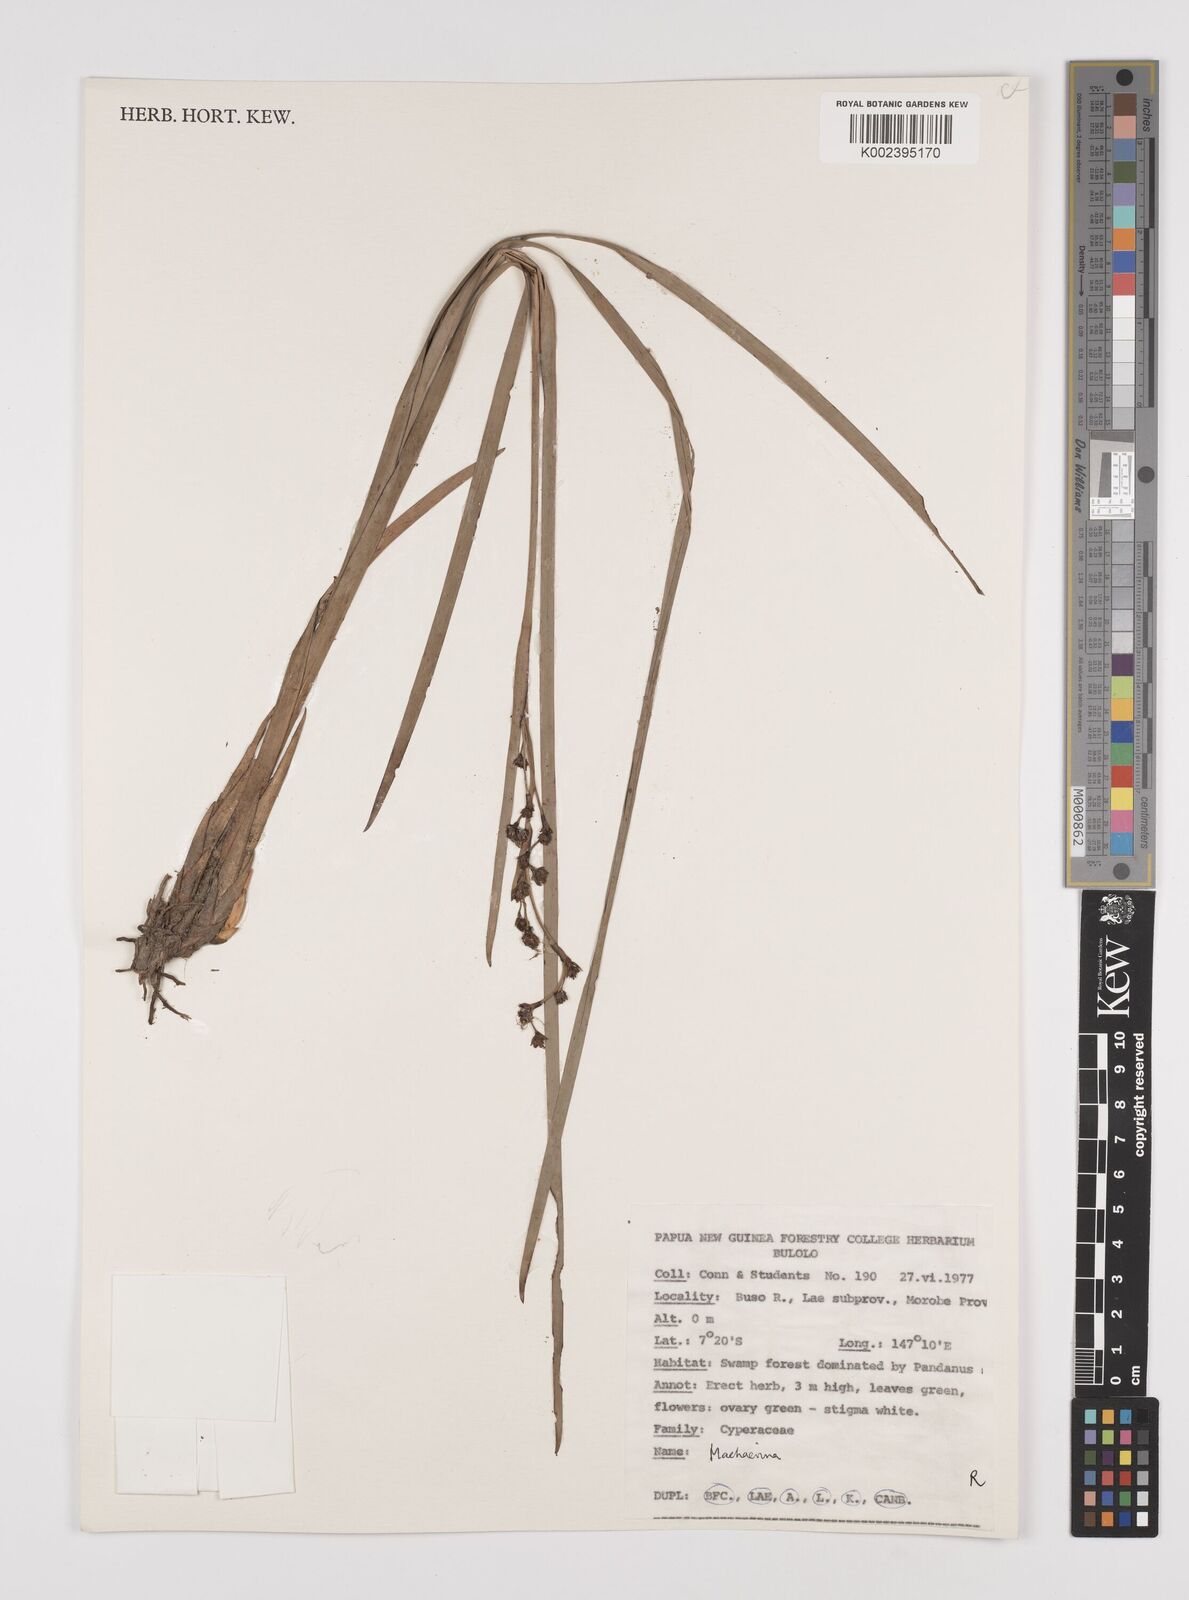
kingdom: Plantae
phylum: Tracheophyta
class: Liliopsida
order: Poales
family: Cyperaceae
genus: Machaerina
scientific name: Machaerina
